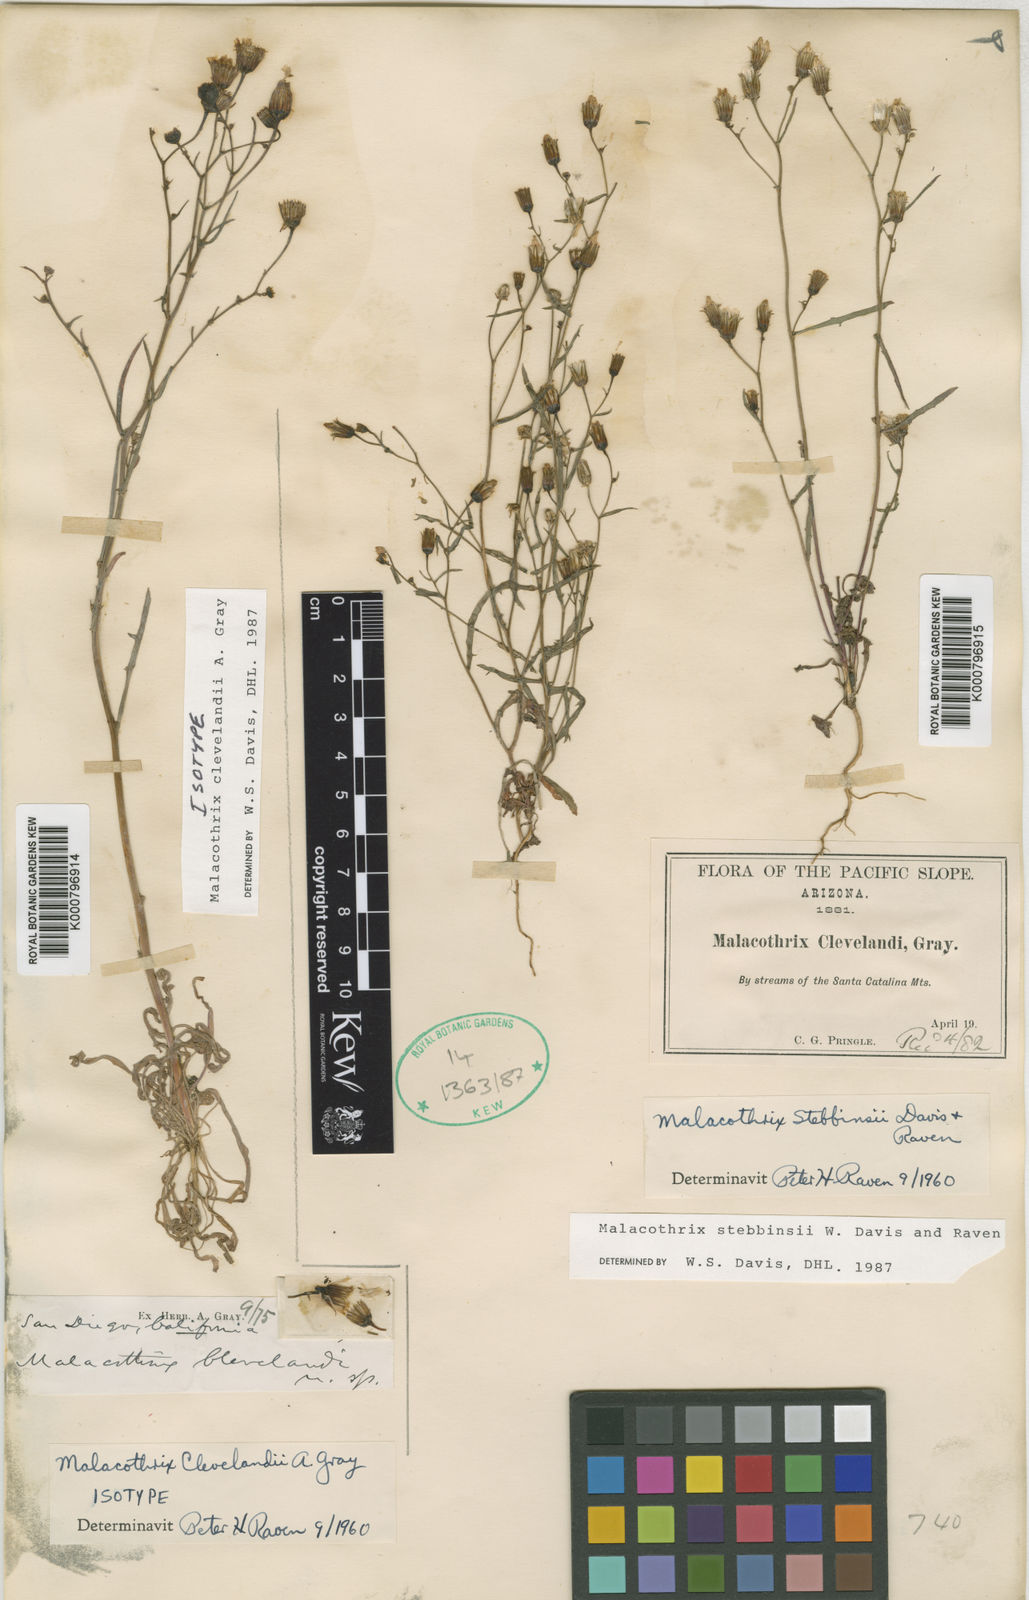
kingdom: Plantae
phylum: Tracheophyta
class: Magnoliopsida
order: Asterales
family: Asteraceae
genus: Malacothrix
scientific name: Malacothrix clevelandii
